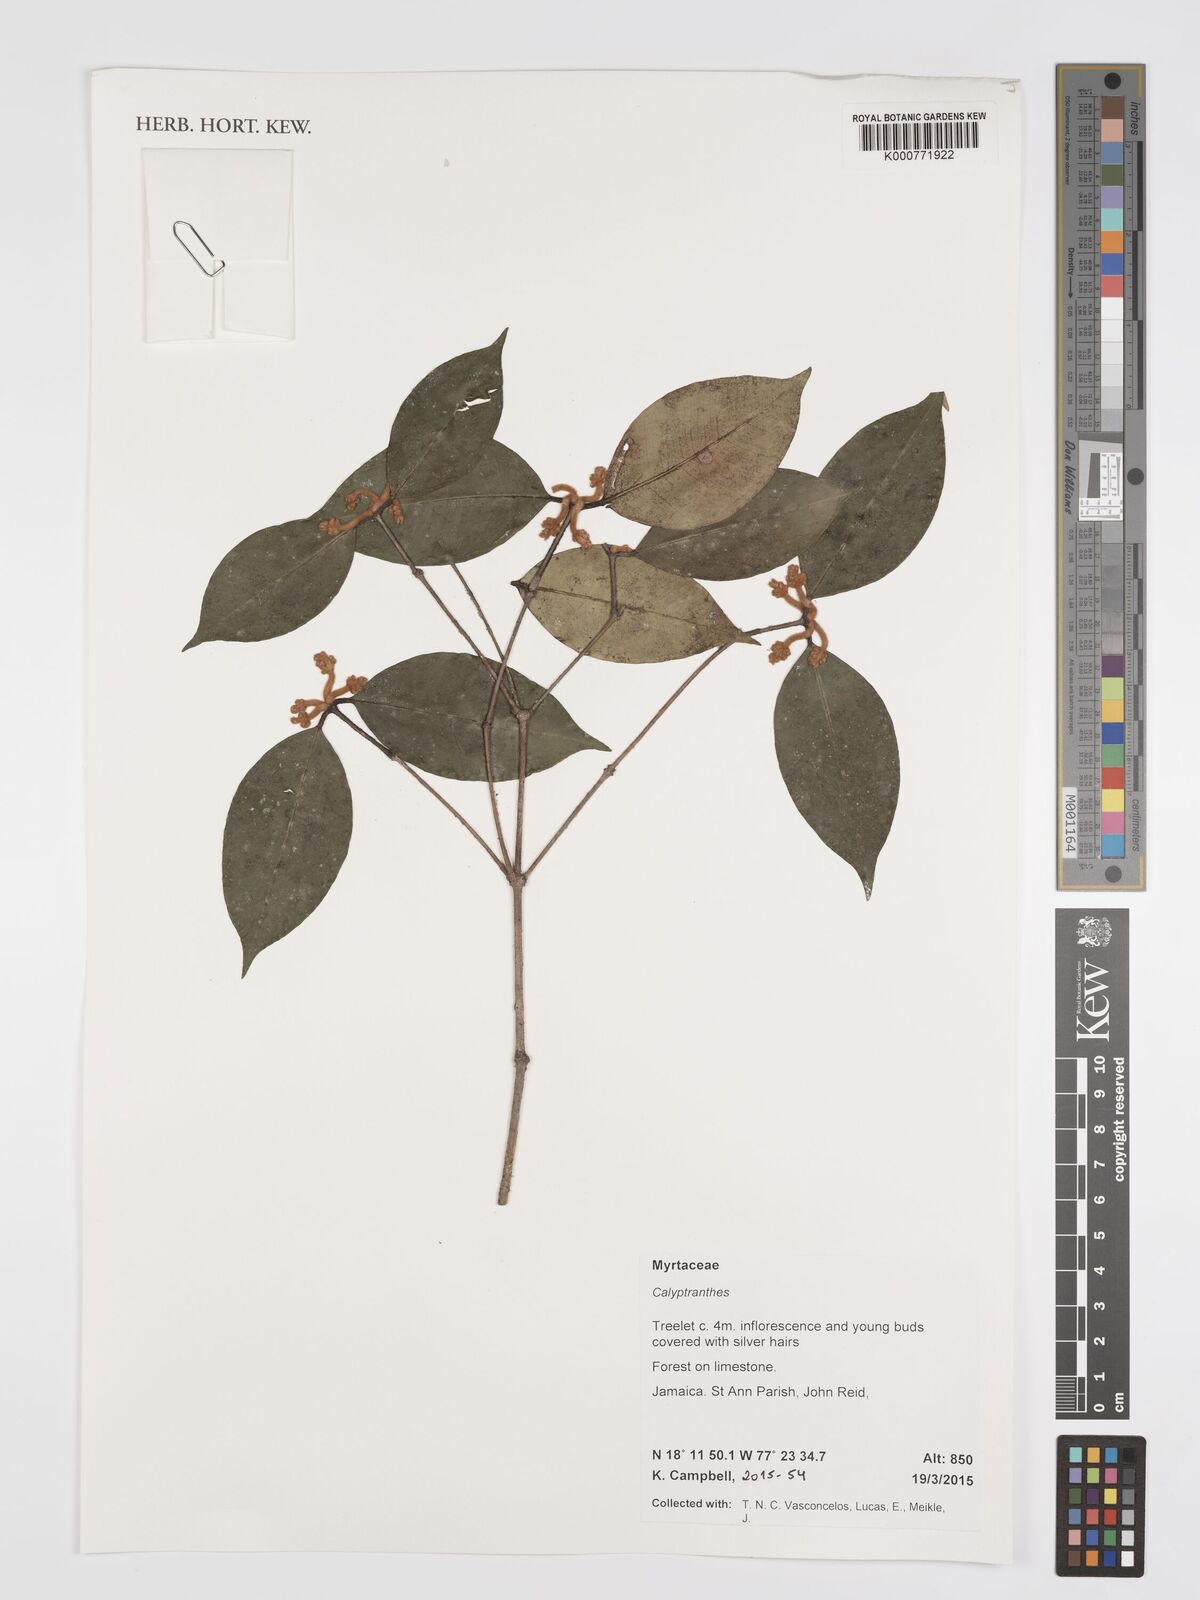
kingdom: Plantae
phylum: Tracheophyta
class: Magnoliopsida
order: Myrtales
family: Myrtaceae
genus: Calyptranthes
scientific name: Calyptranthes
